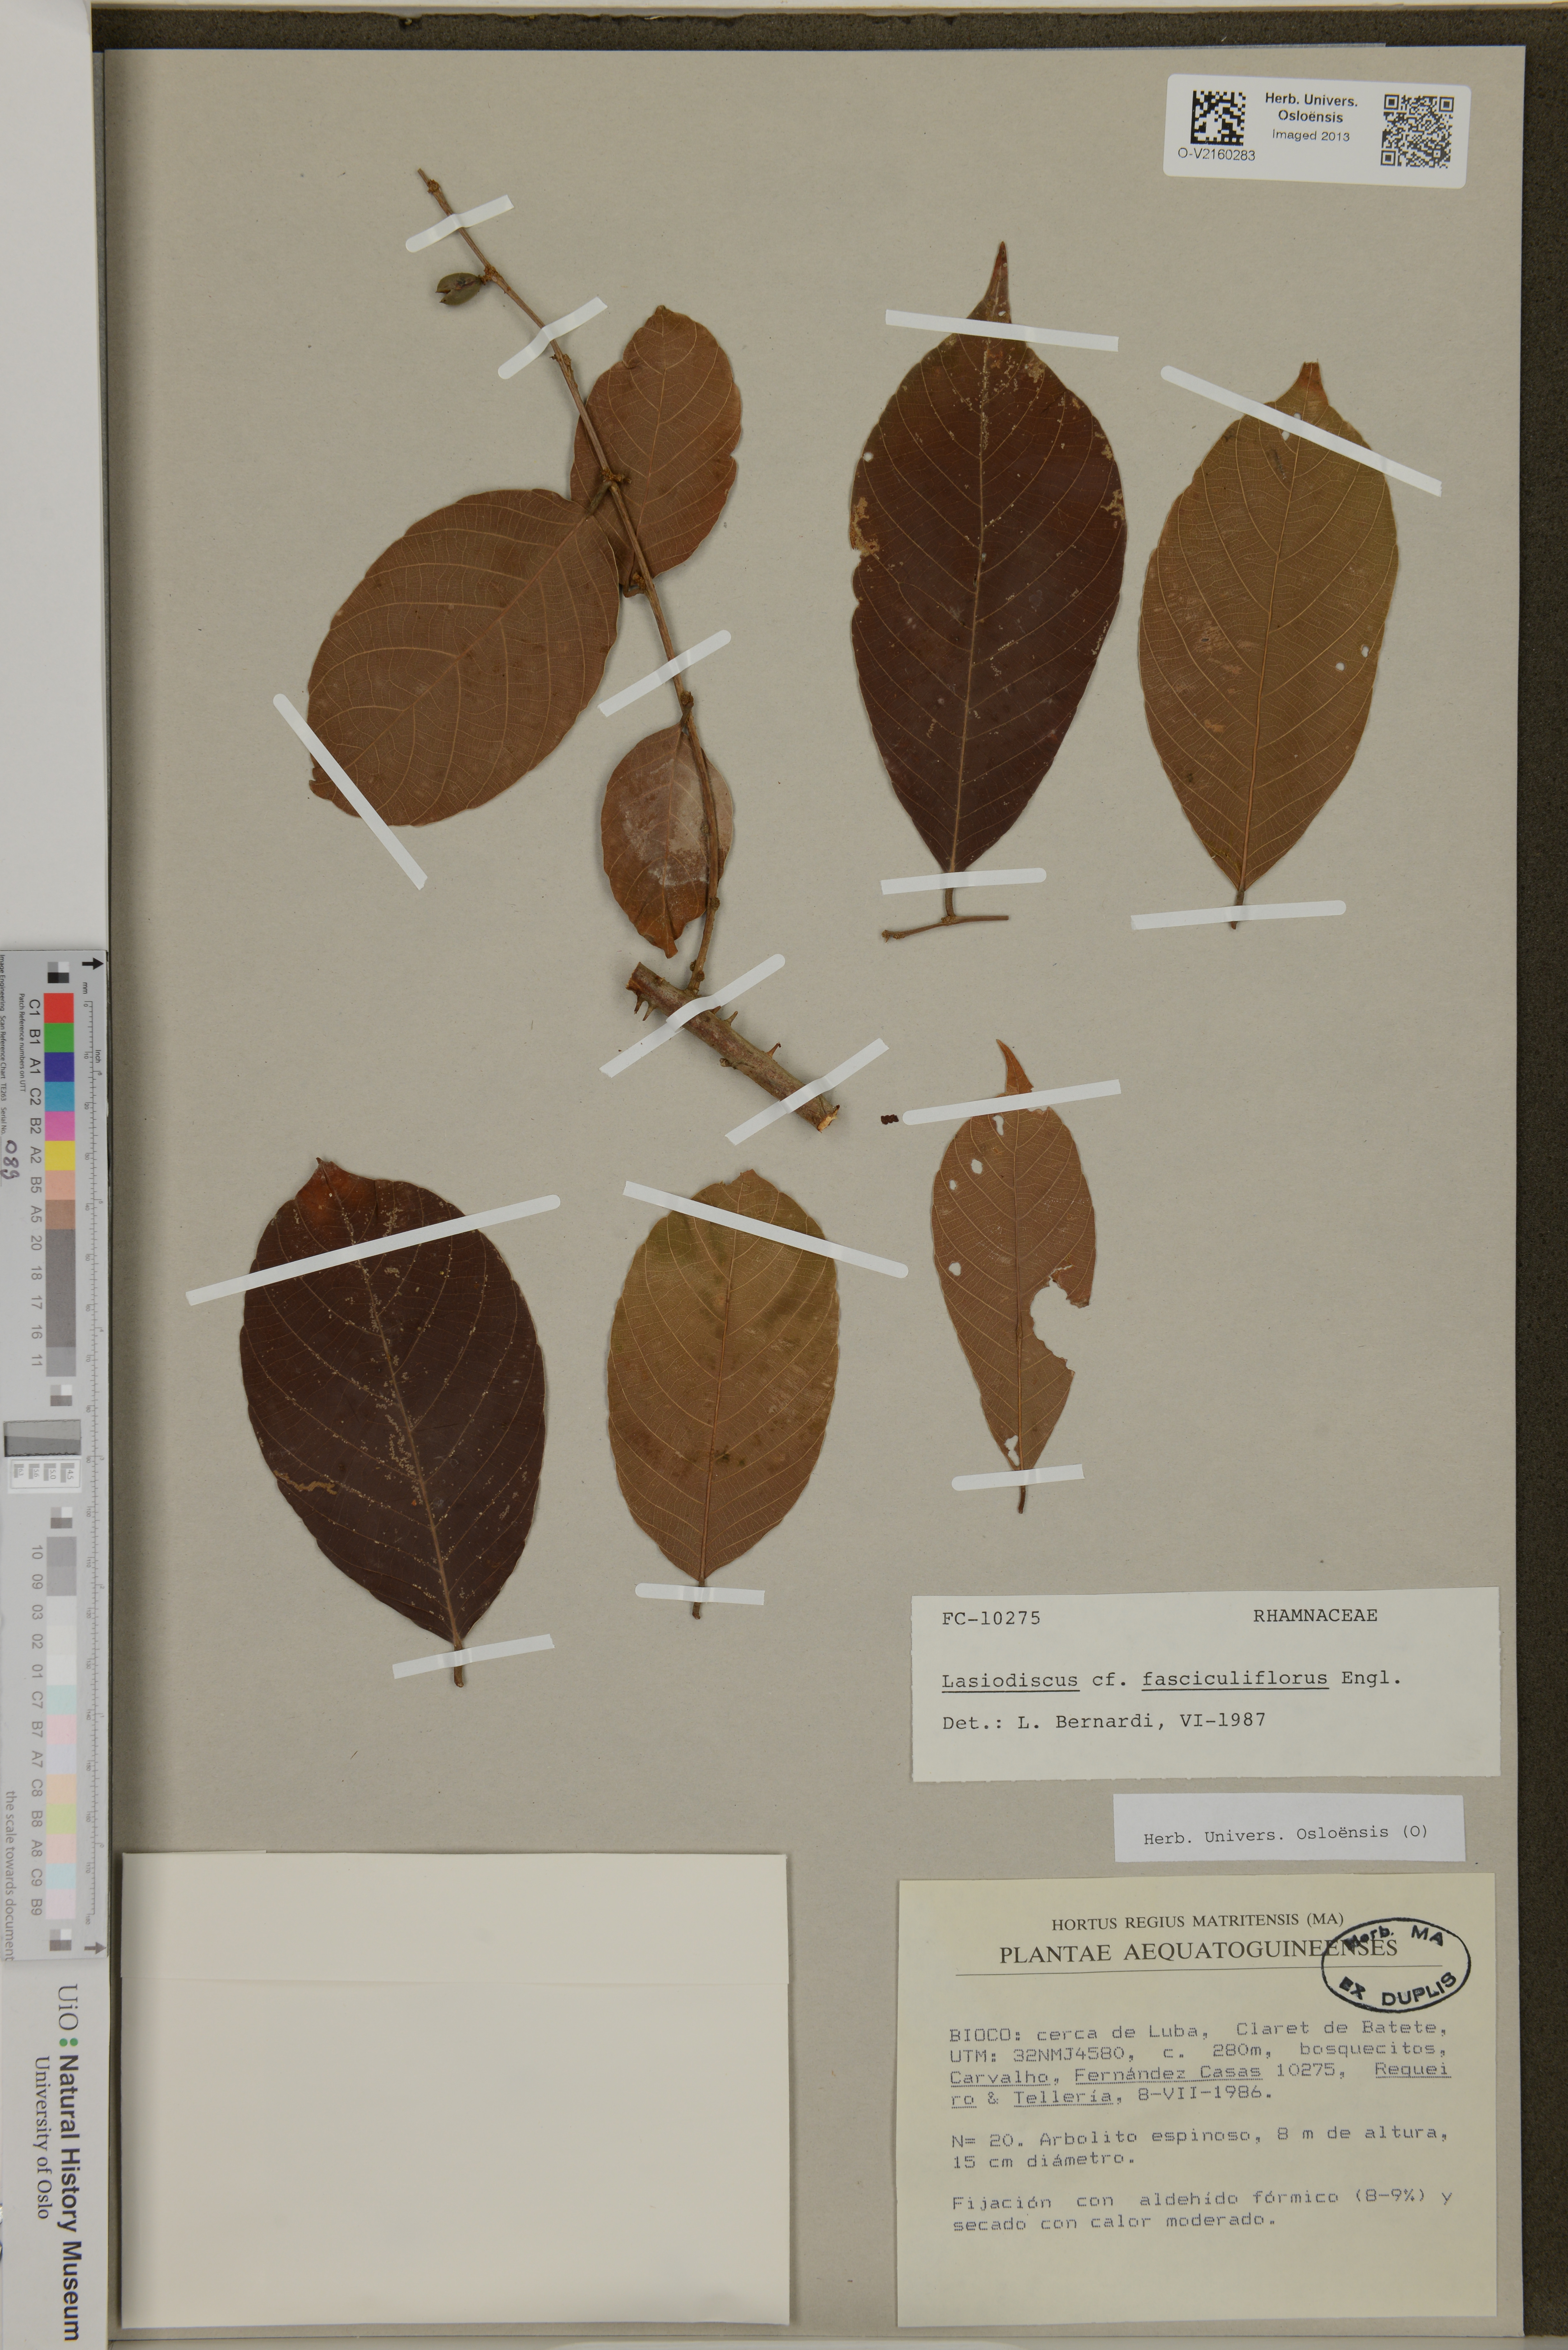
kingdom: Plantae
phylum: Tracheophyta
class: Magnoliopsida
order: Rosales
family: Rhamnaceae
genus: Lasiodiscus
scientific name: Lasiodiscus fasciculiflorus
